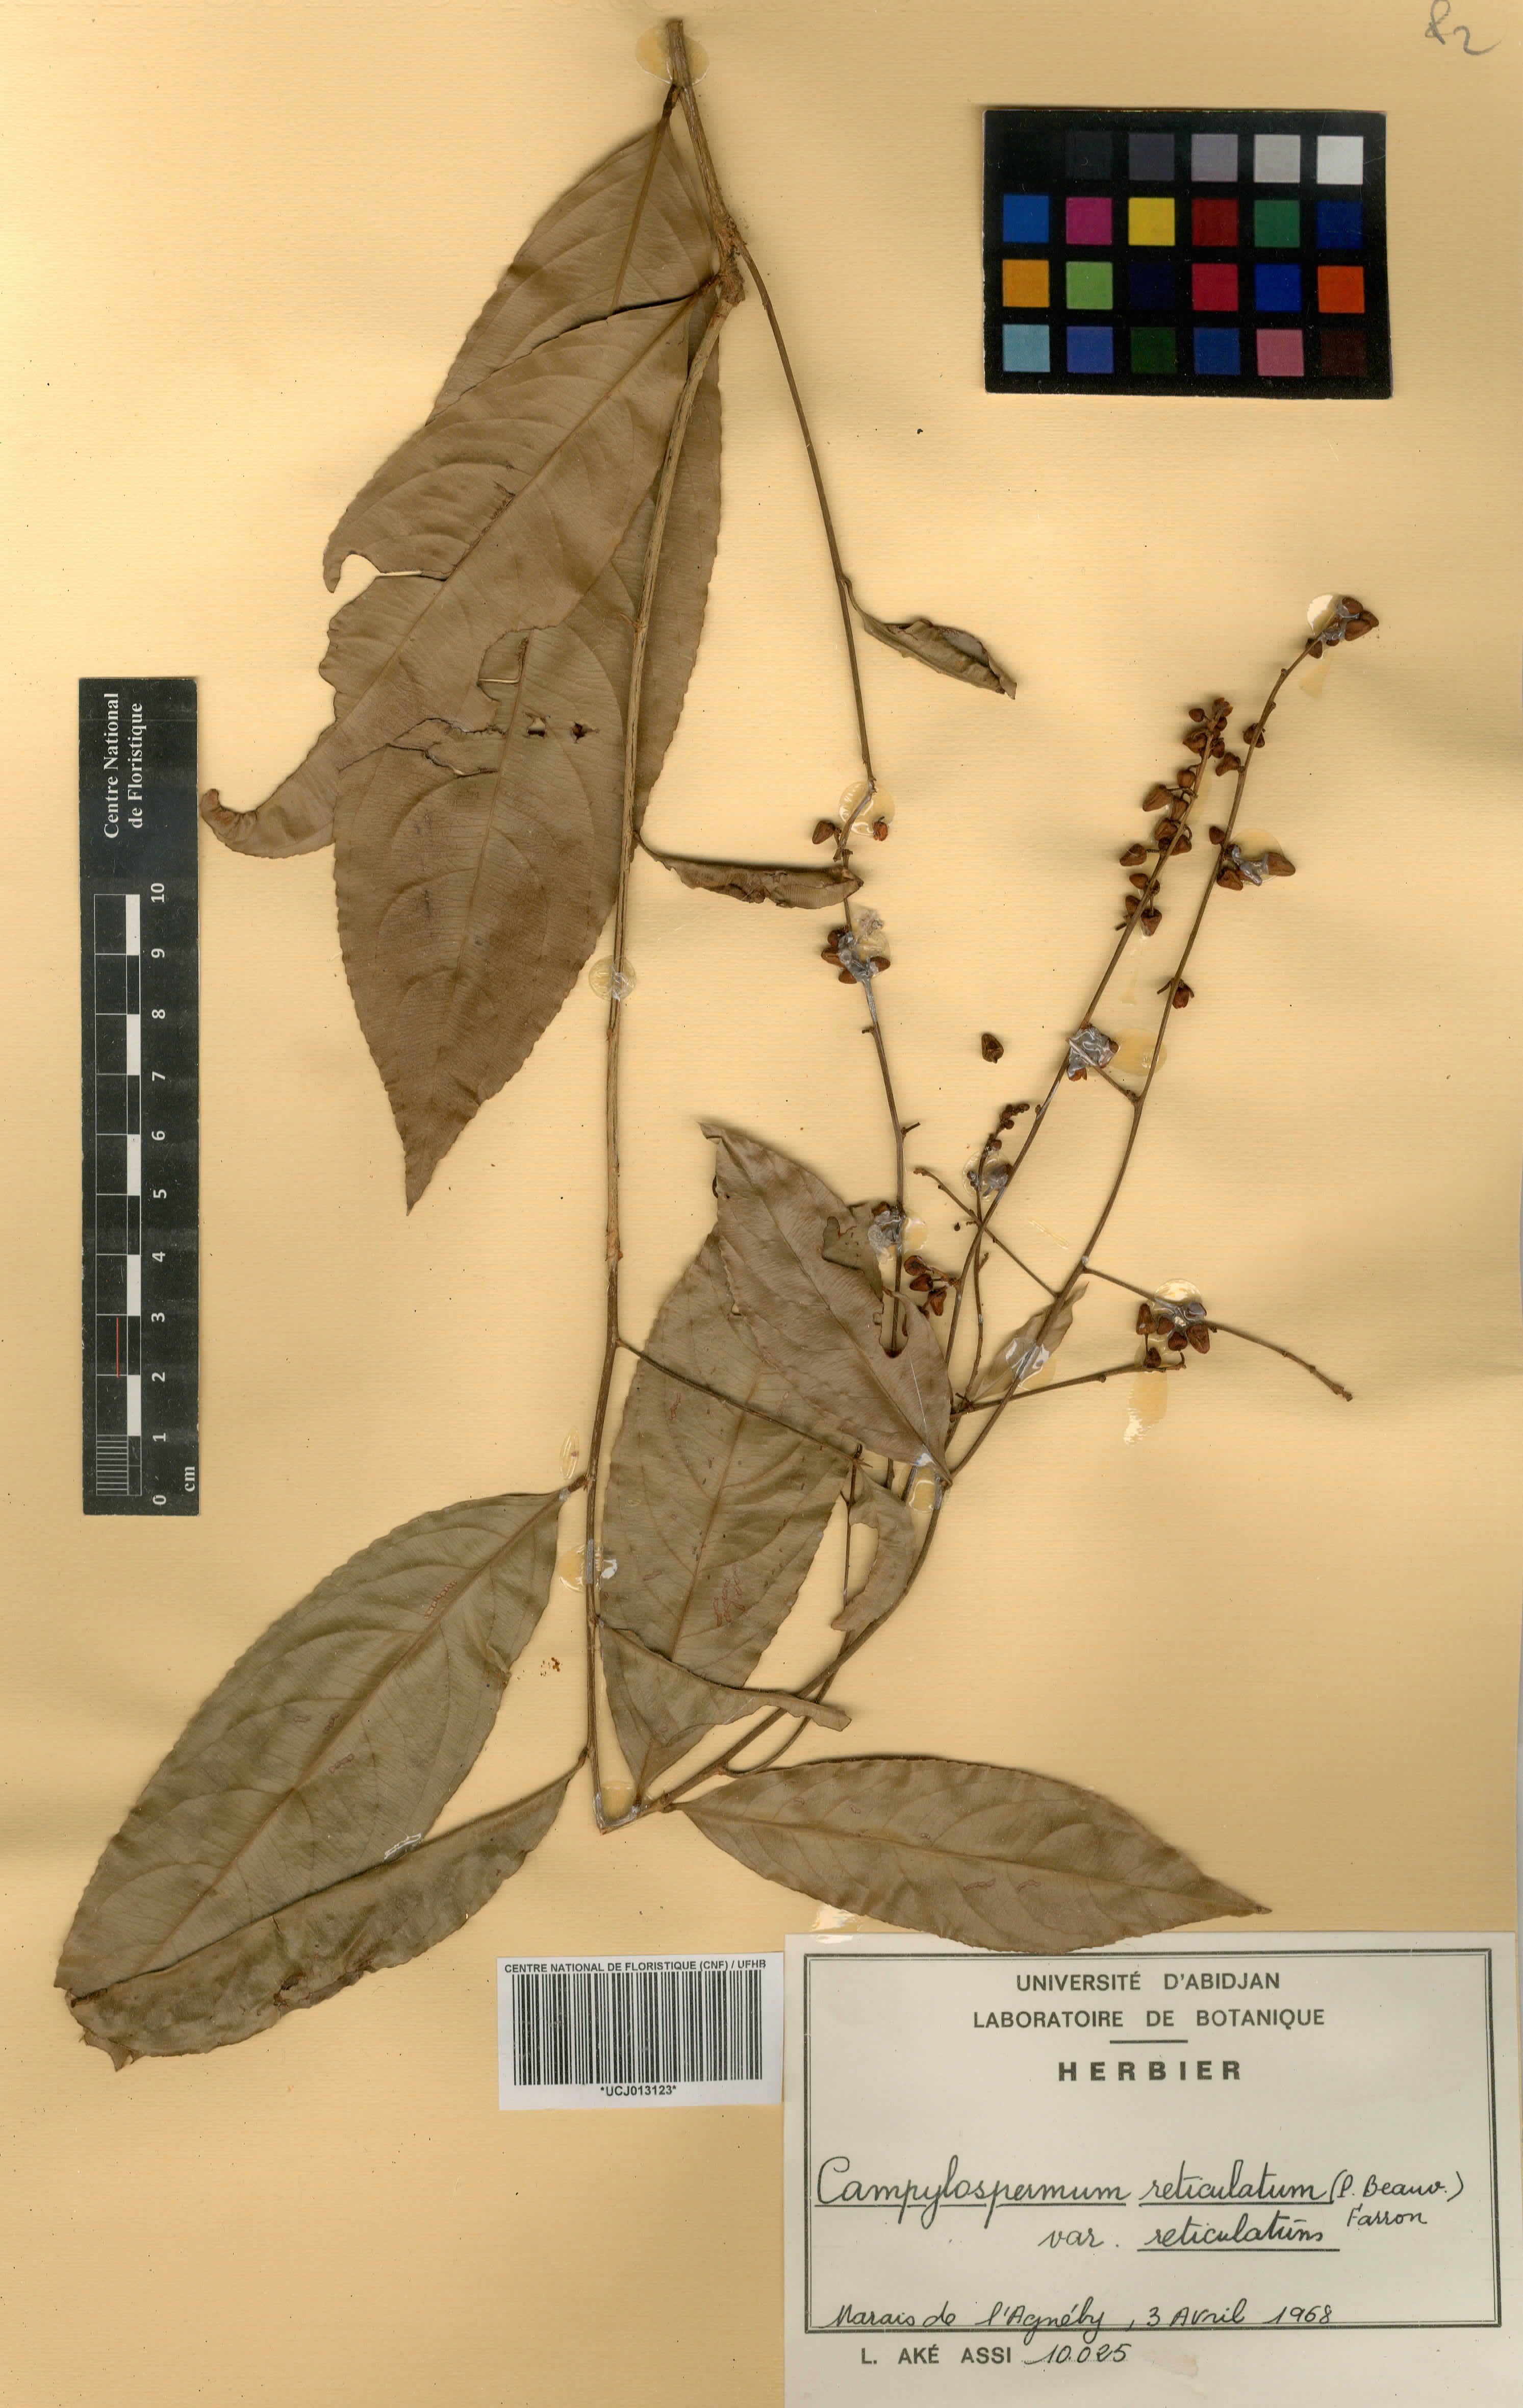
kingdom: Plantae
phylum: Tracheophyta
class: Magnoliopsida
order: Malpighiales
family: Ochnaceae
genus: Campylospermum
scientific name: Campylospermum reticulatum
